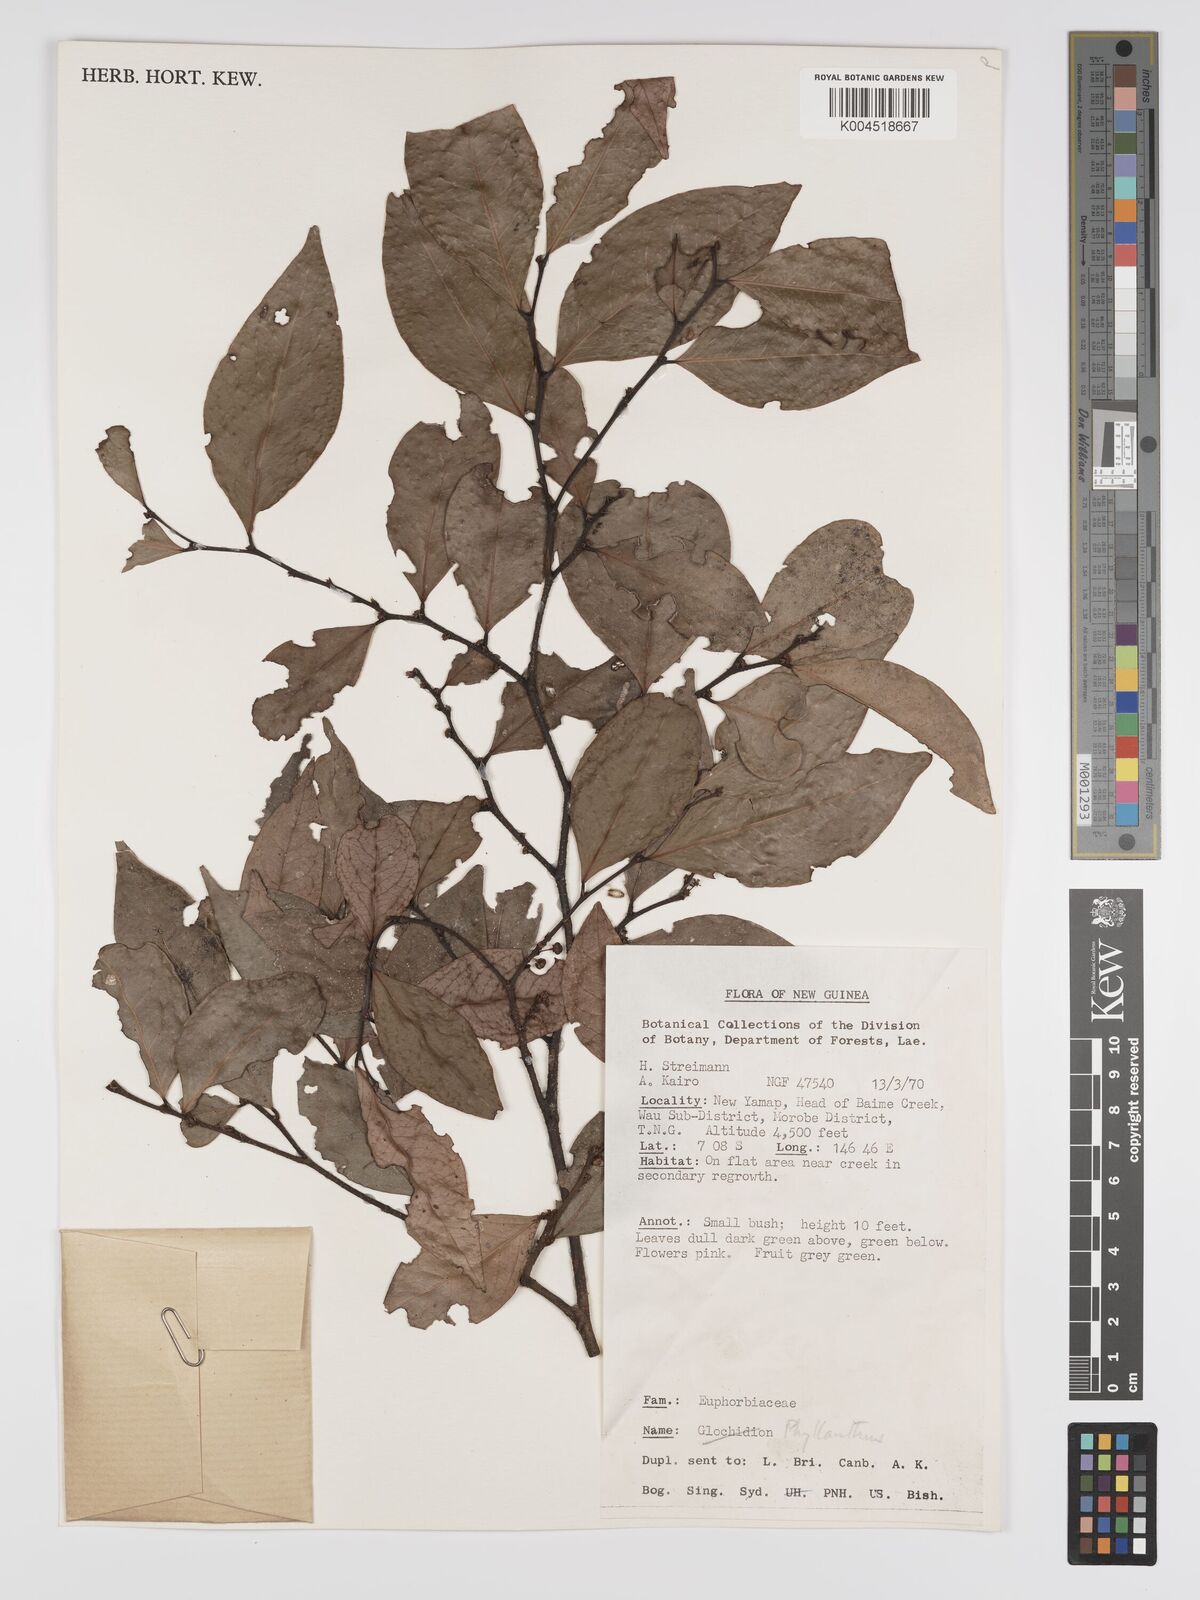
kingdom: Plantae
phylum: Tracheophyta
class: Magnoliopsida
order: Malpighiales
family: Phyllanthaceae
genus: Phyllanthus
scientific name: Phyllanthus aphanostylus
